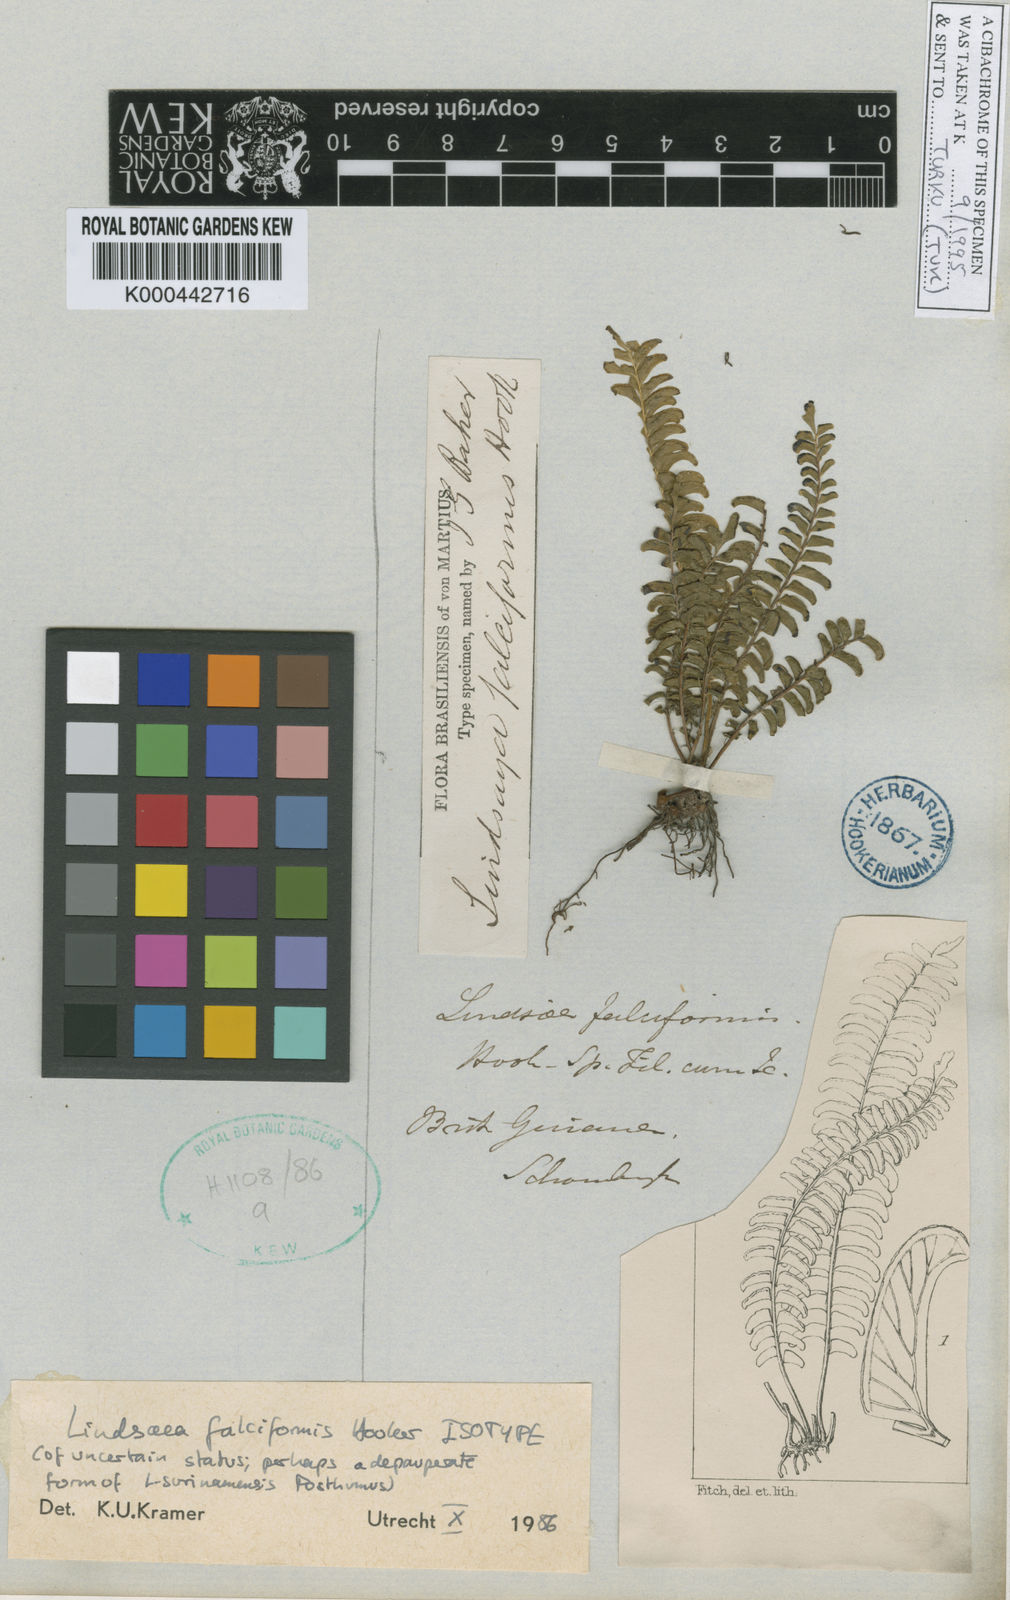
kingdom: Plantae
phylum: Tracheophyta
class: Polypodiopsida
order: Polypodiales
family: Lindsaeaceae
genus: Lindsaea
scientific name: Lindsaea
